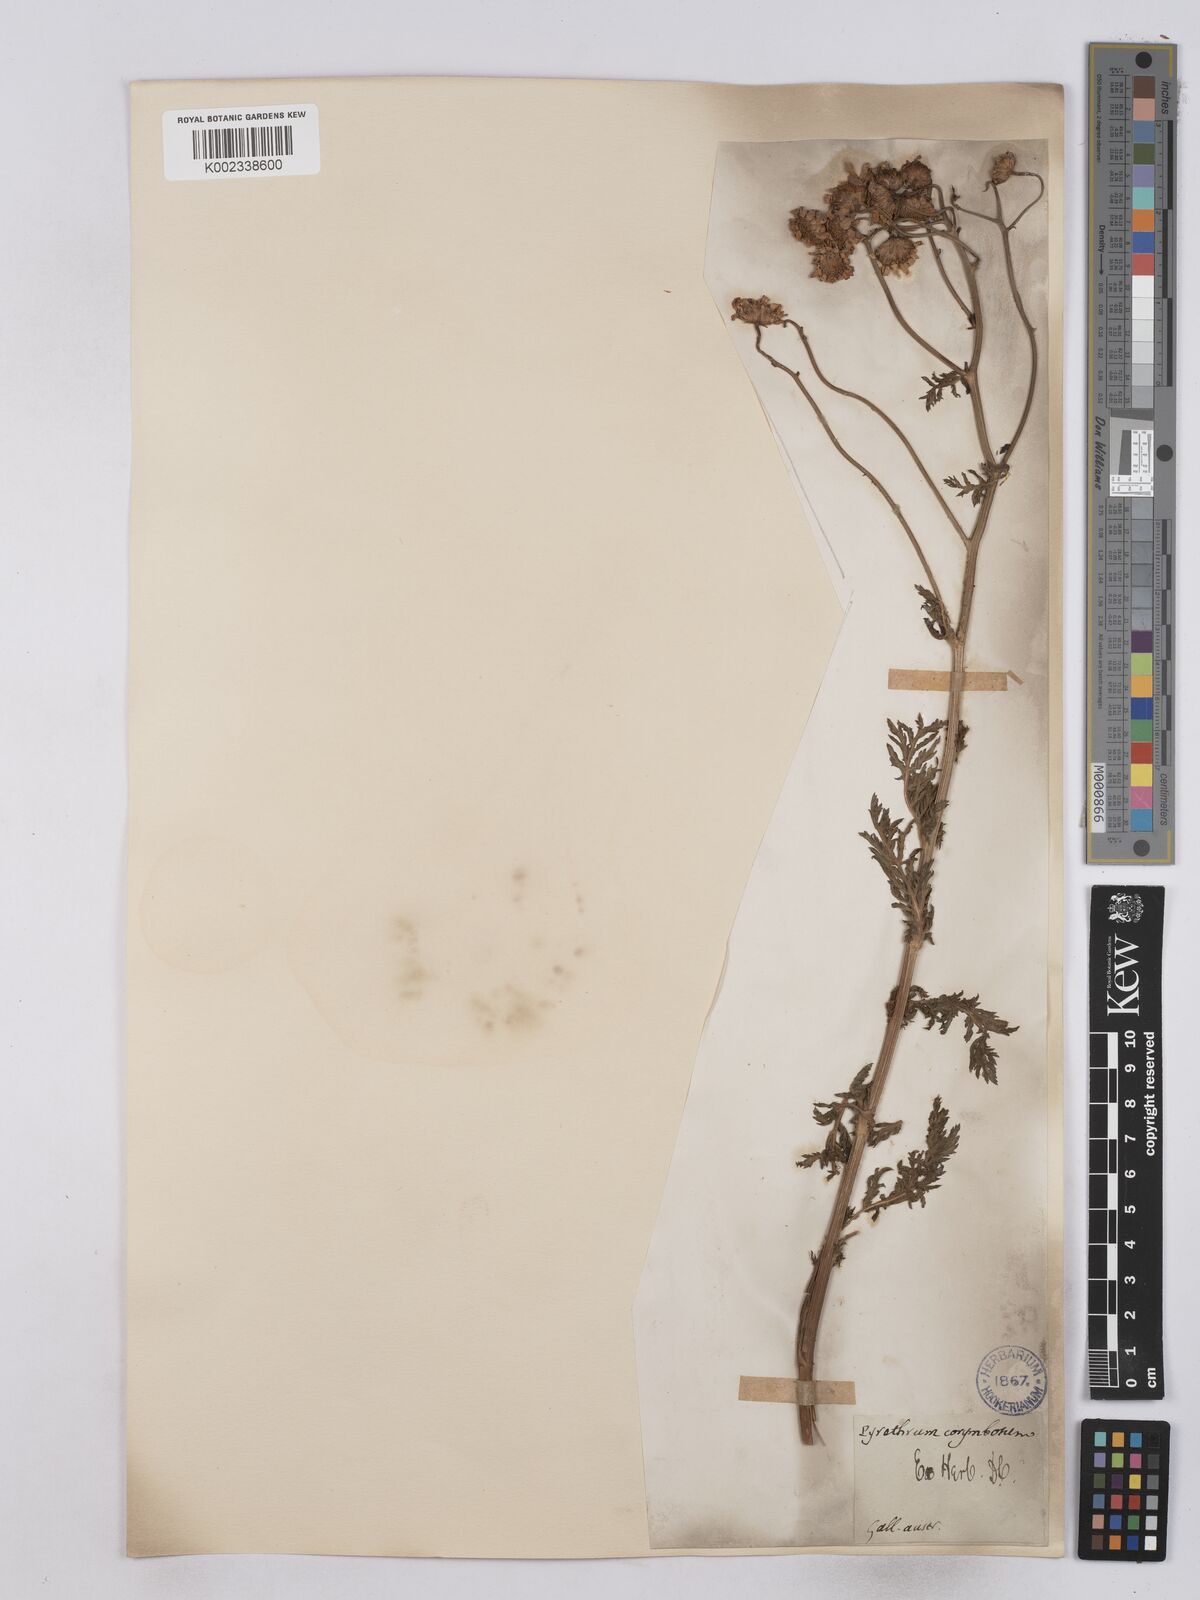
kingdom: Plantae
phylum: Tracheophyta
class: Magnoliopsida
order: Asterales
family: Asteraceae
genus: Tanacetum
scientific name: Tanacetum corymbosum
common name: Scentless feverfew
